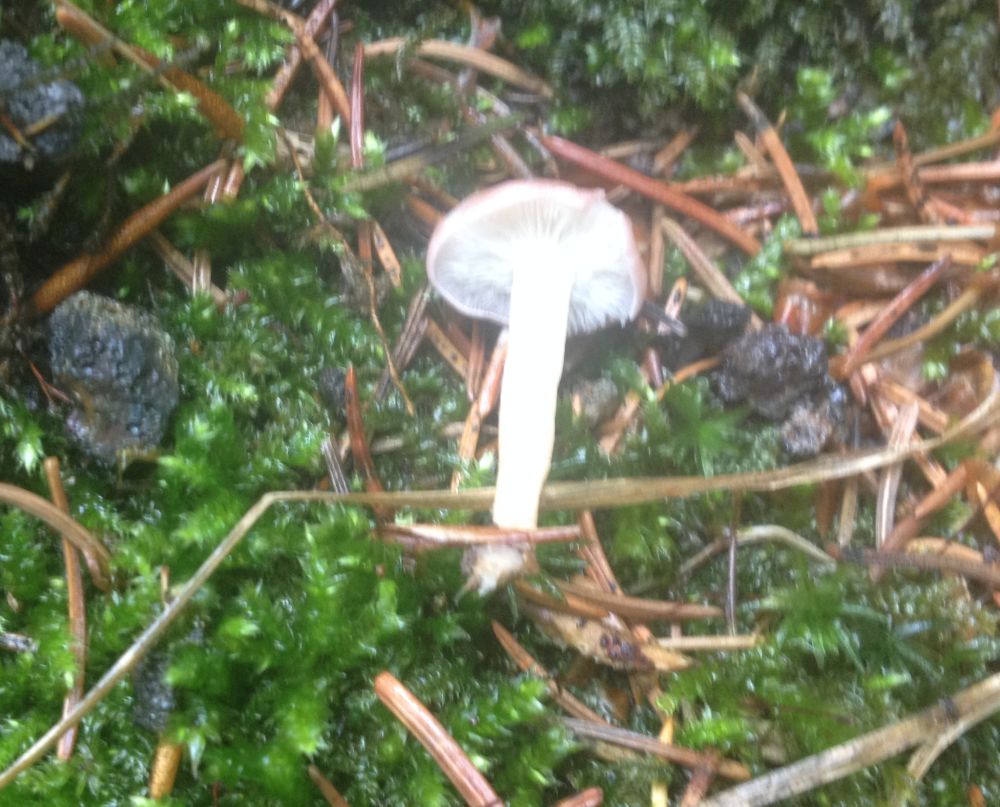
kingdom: Fungi
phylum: Basidiomycota
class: Agaricomycetes
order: Agaricales
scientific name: Agaricales
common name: champignonordenen
